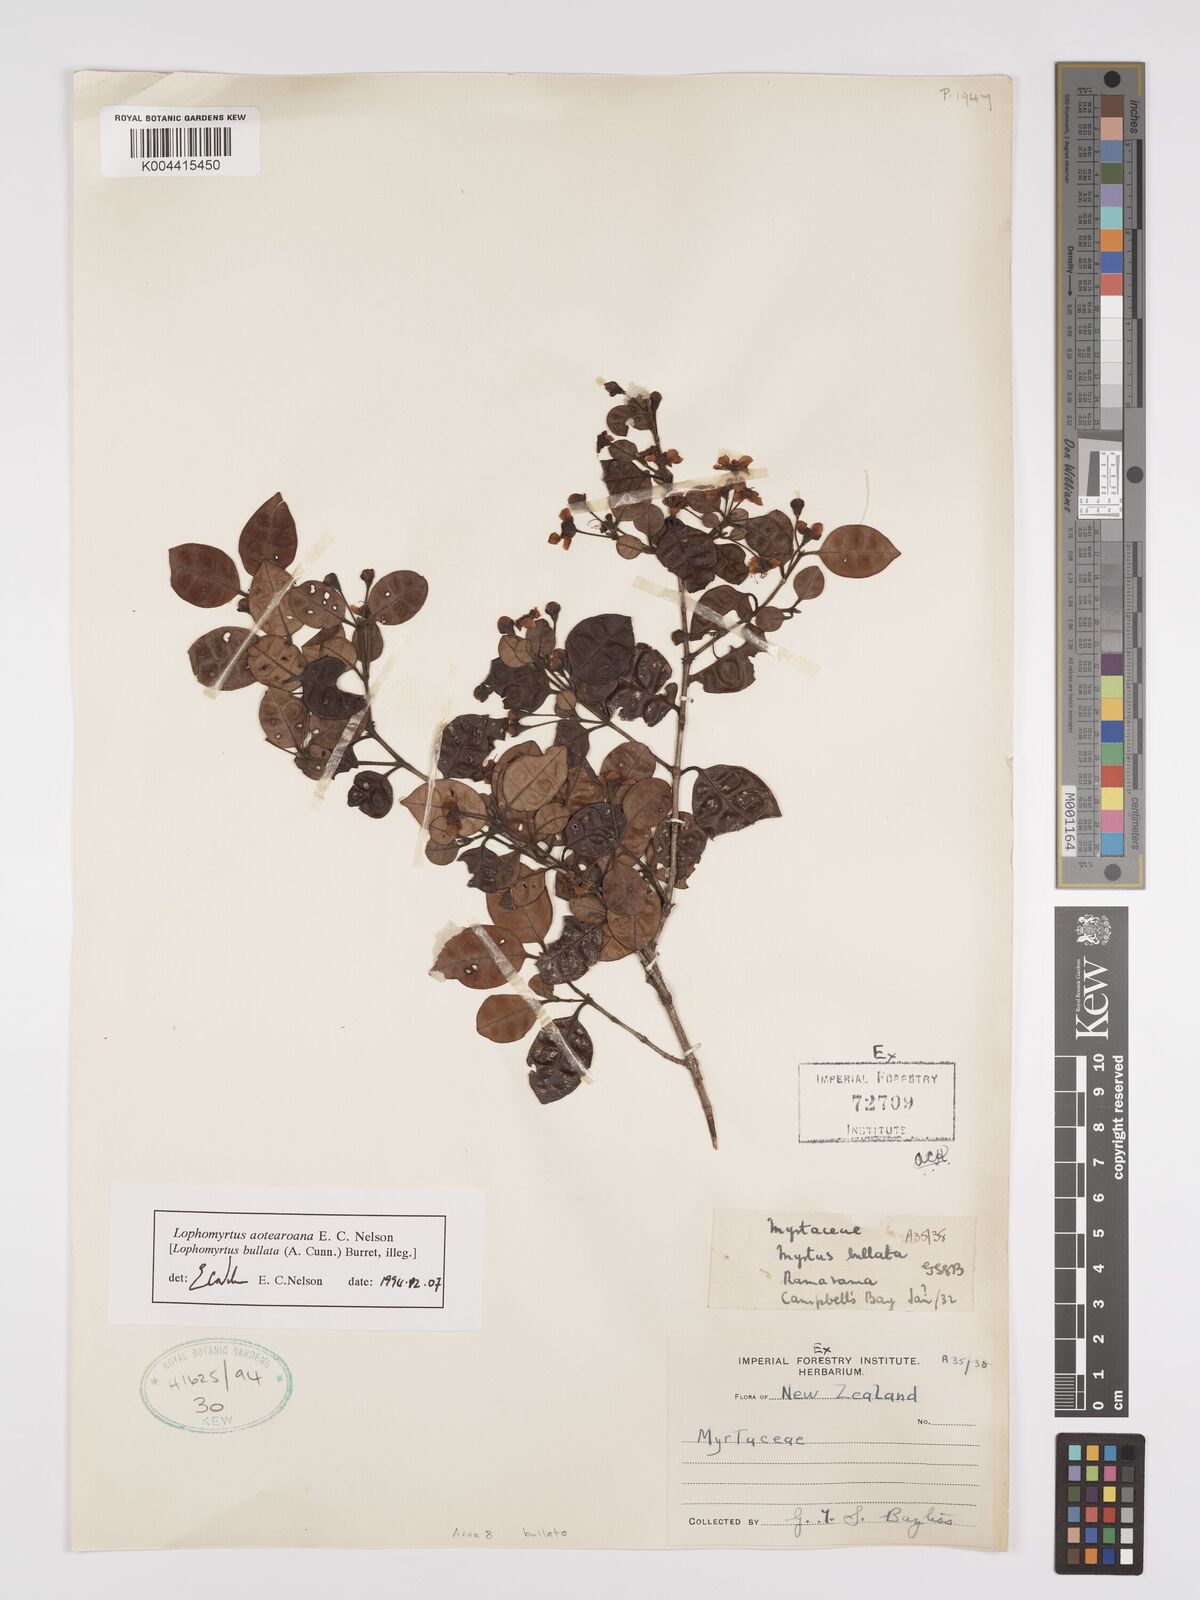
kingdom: Plantae
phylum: Tracheophyta
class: Magnoliopsida
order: Myrtales
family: Myrtaceae
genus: Lophomyrtus
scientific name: Lophomyrtus bullata
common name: Rama rama
